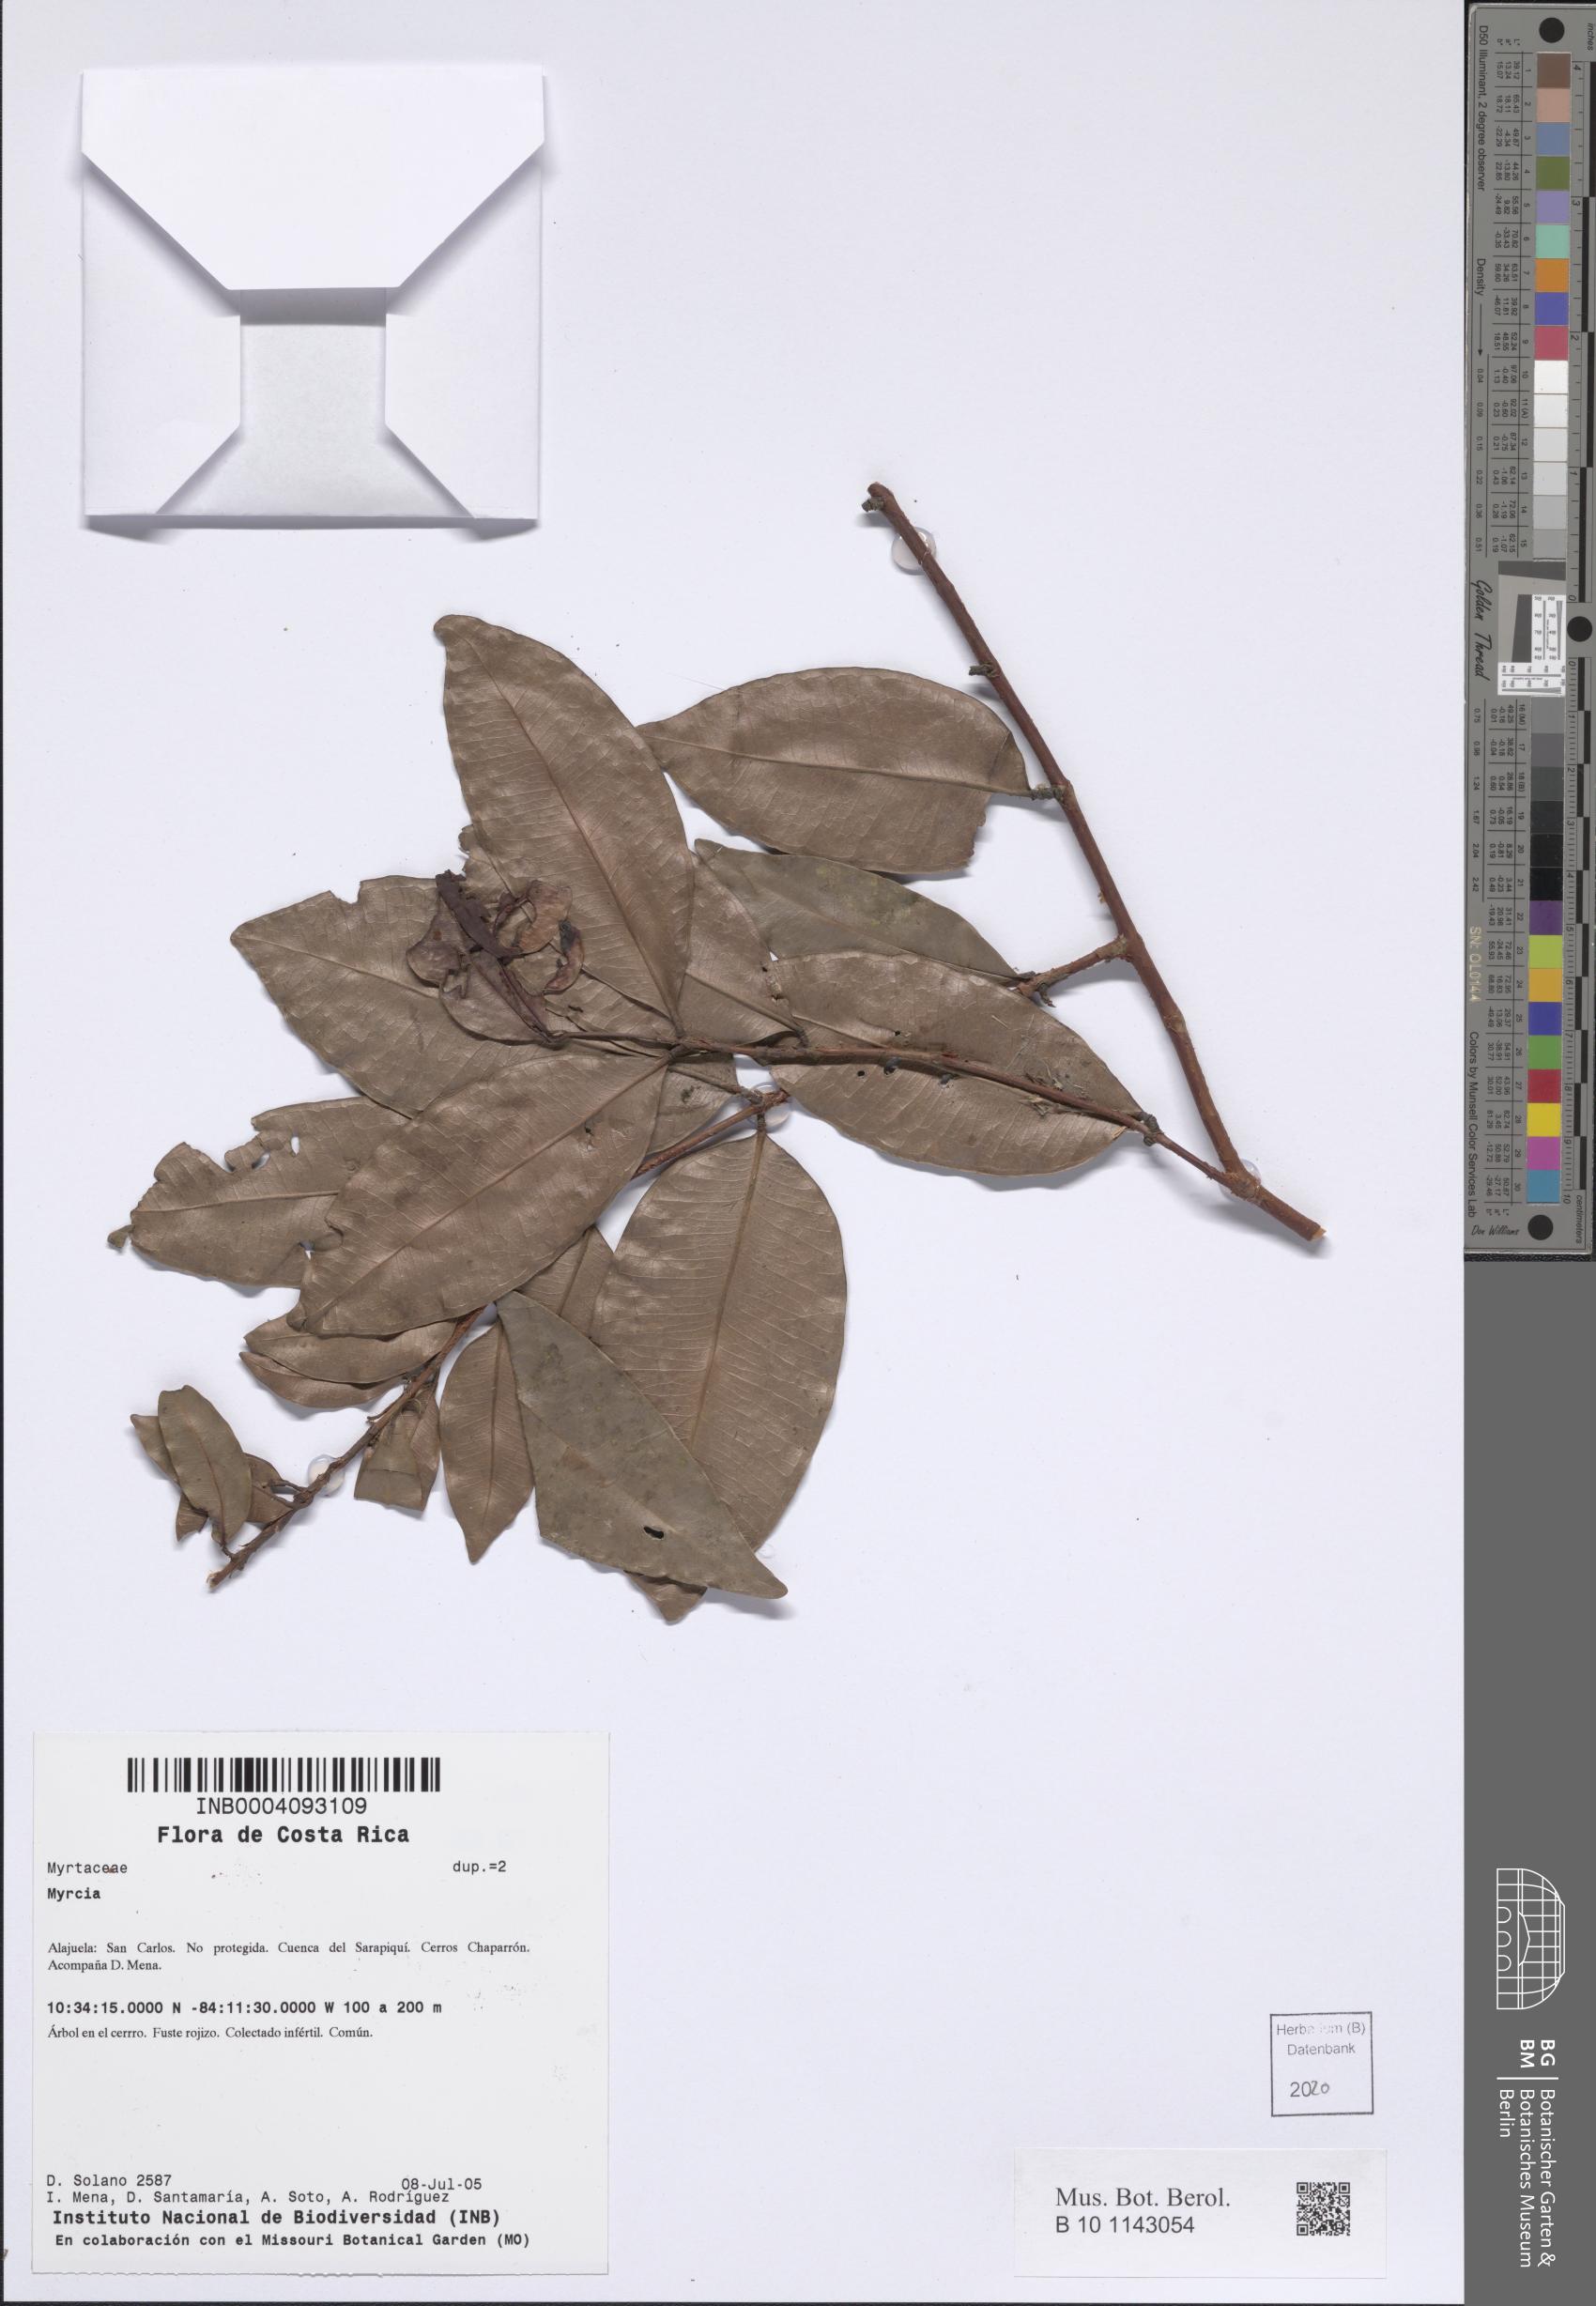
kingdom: Plantae
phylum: Tracheophyta
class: Magnoliopsida
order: Myrtales
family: Myrtaceae
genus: Myrcia
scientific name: Myrcia
